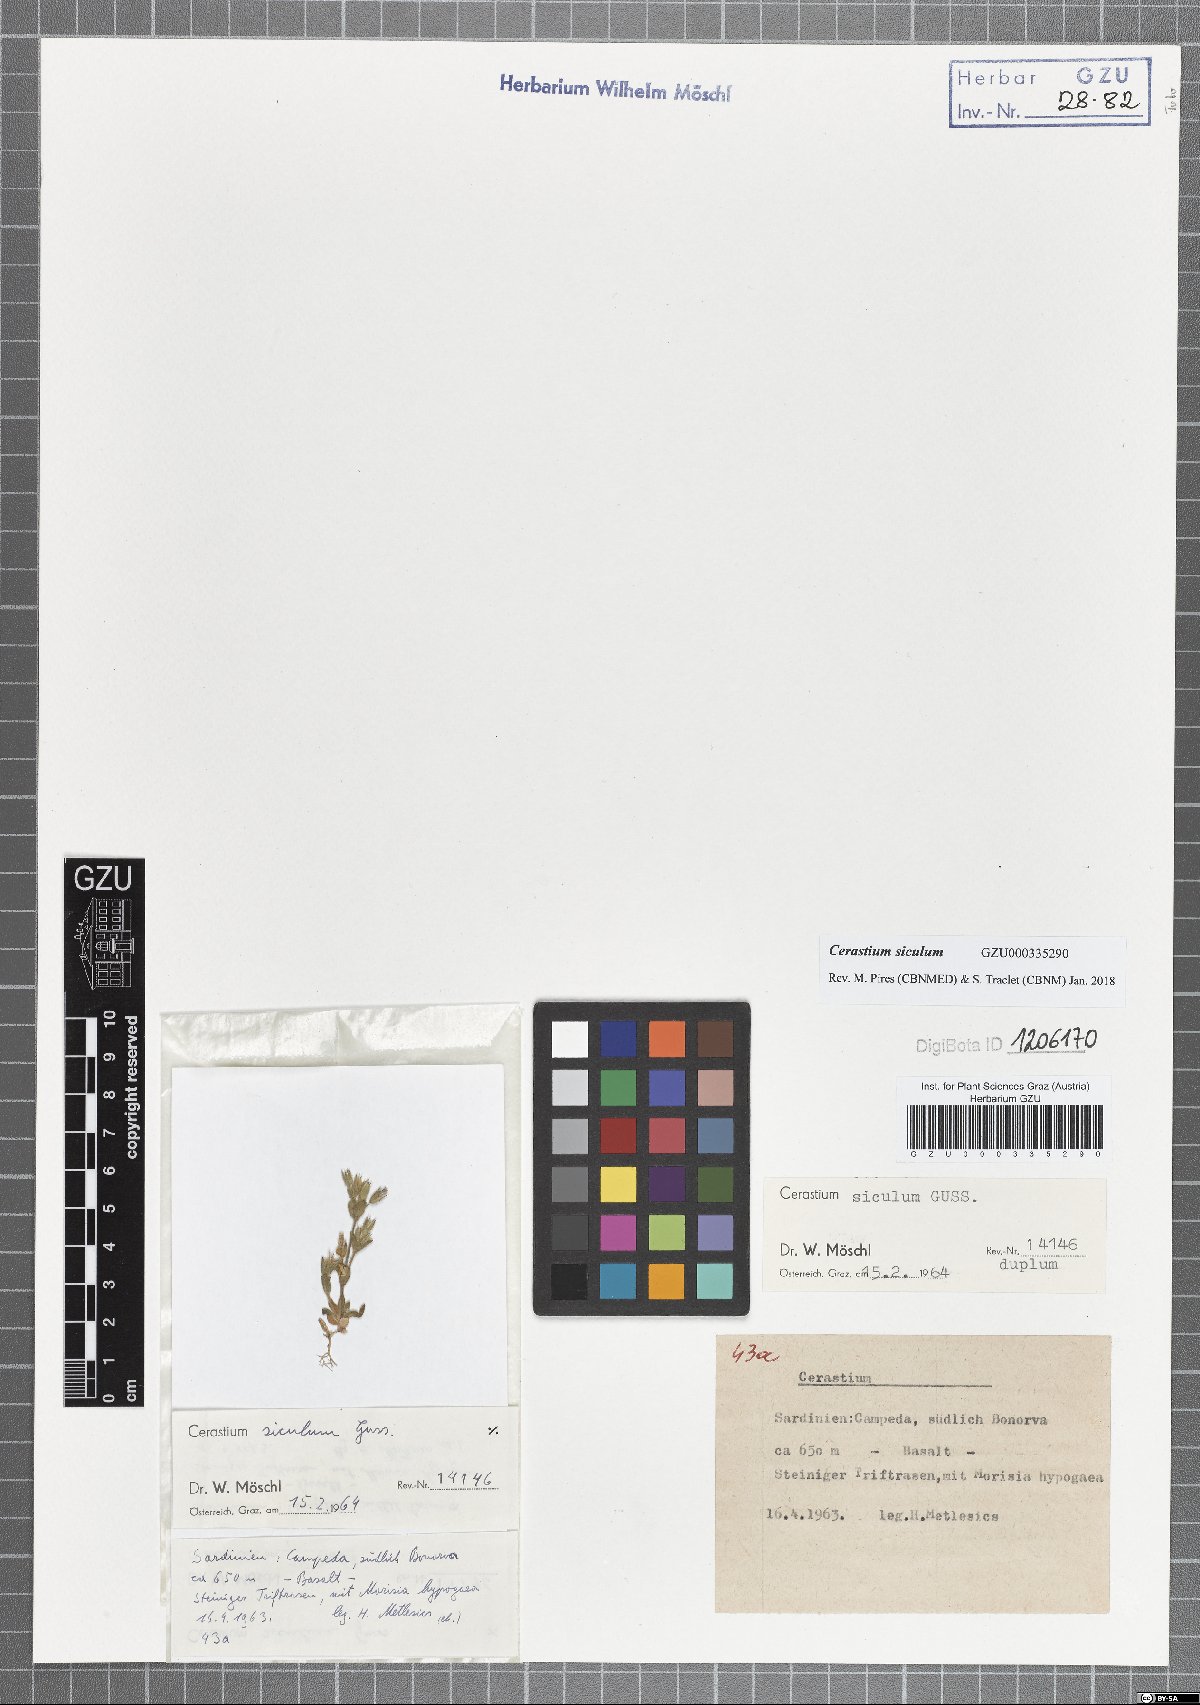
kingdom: Plantae
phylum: Tracheophyta
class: Magnoliopsida
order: Caryophyllales
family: Caryophyllaceae
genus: Cerastium
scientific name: Cerastium siculum
